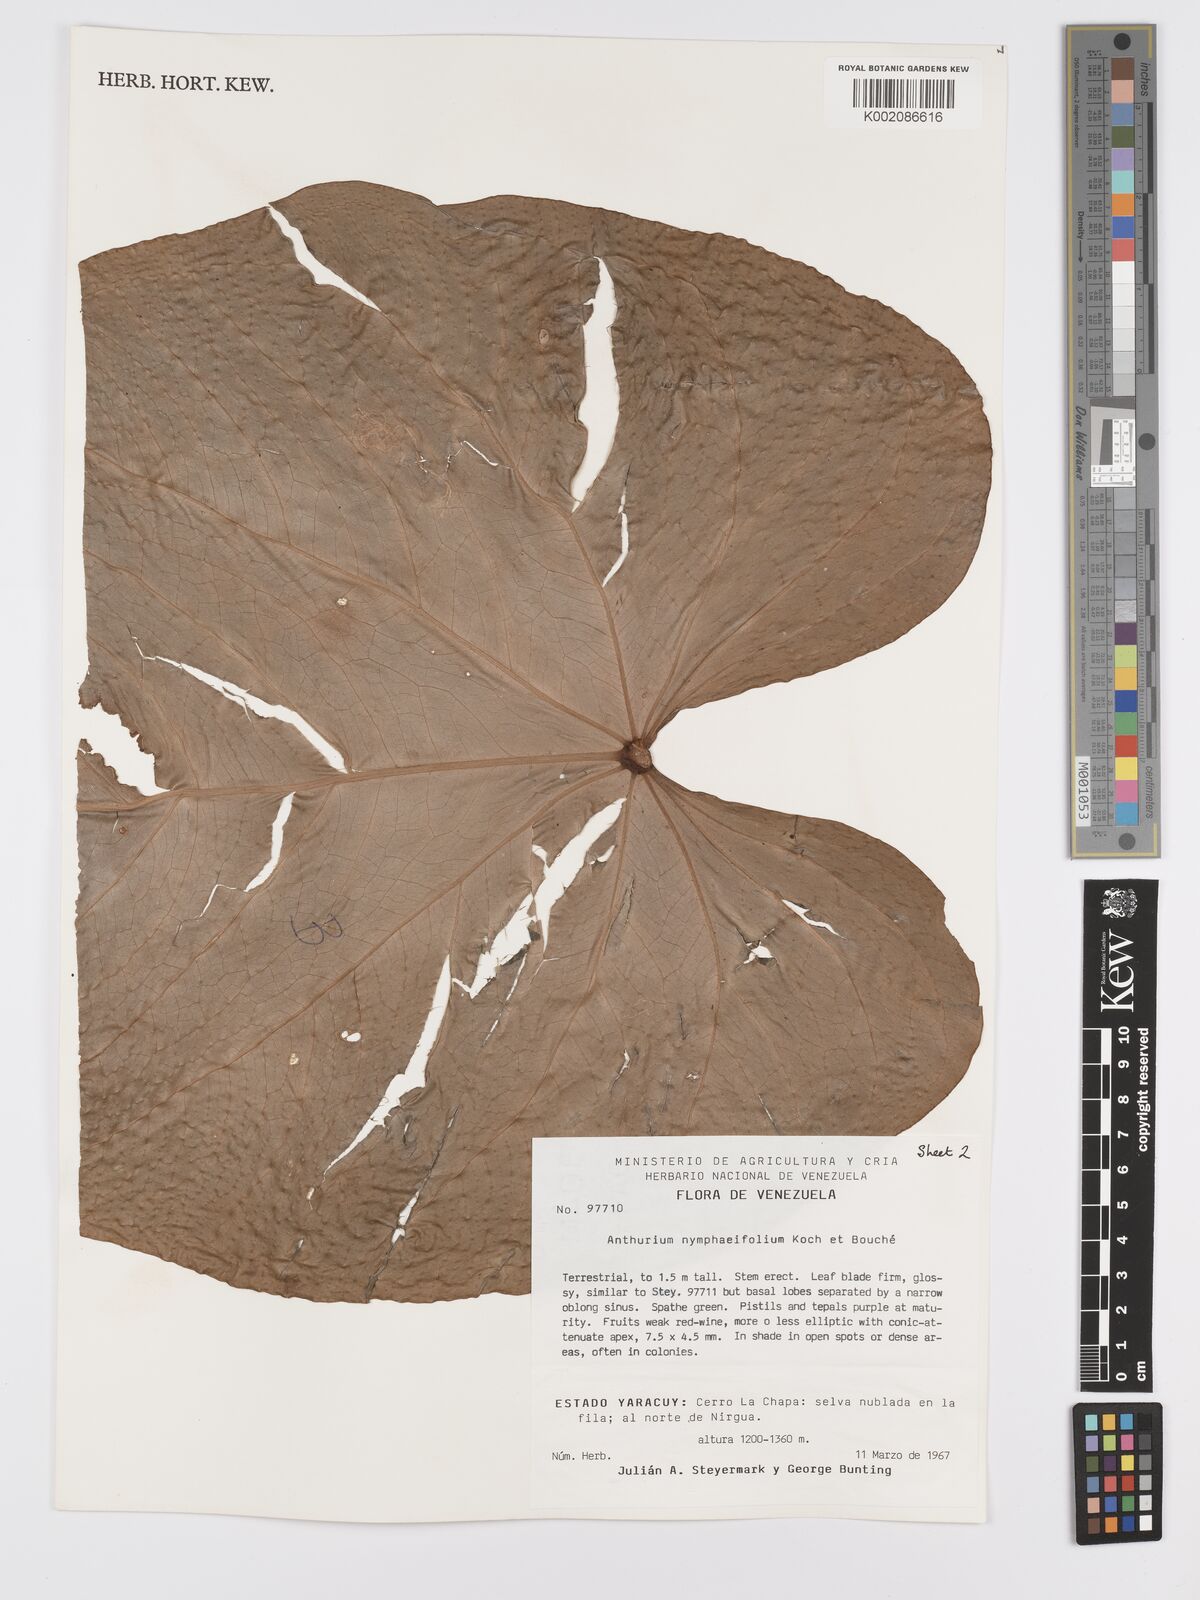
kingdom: Plantae
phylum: Tracheophyta
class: Liliopsida
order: Alismatales
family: Araceae
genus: Anthurium
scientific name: Anthurium nymphaeifolium
